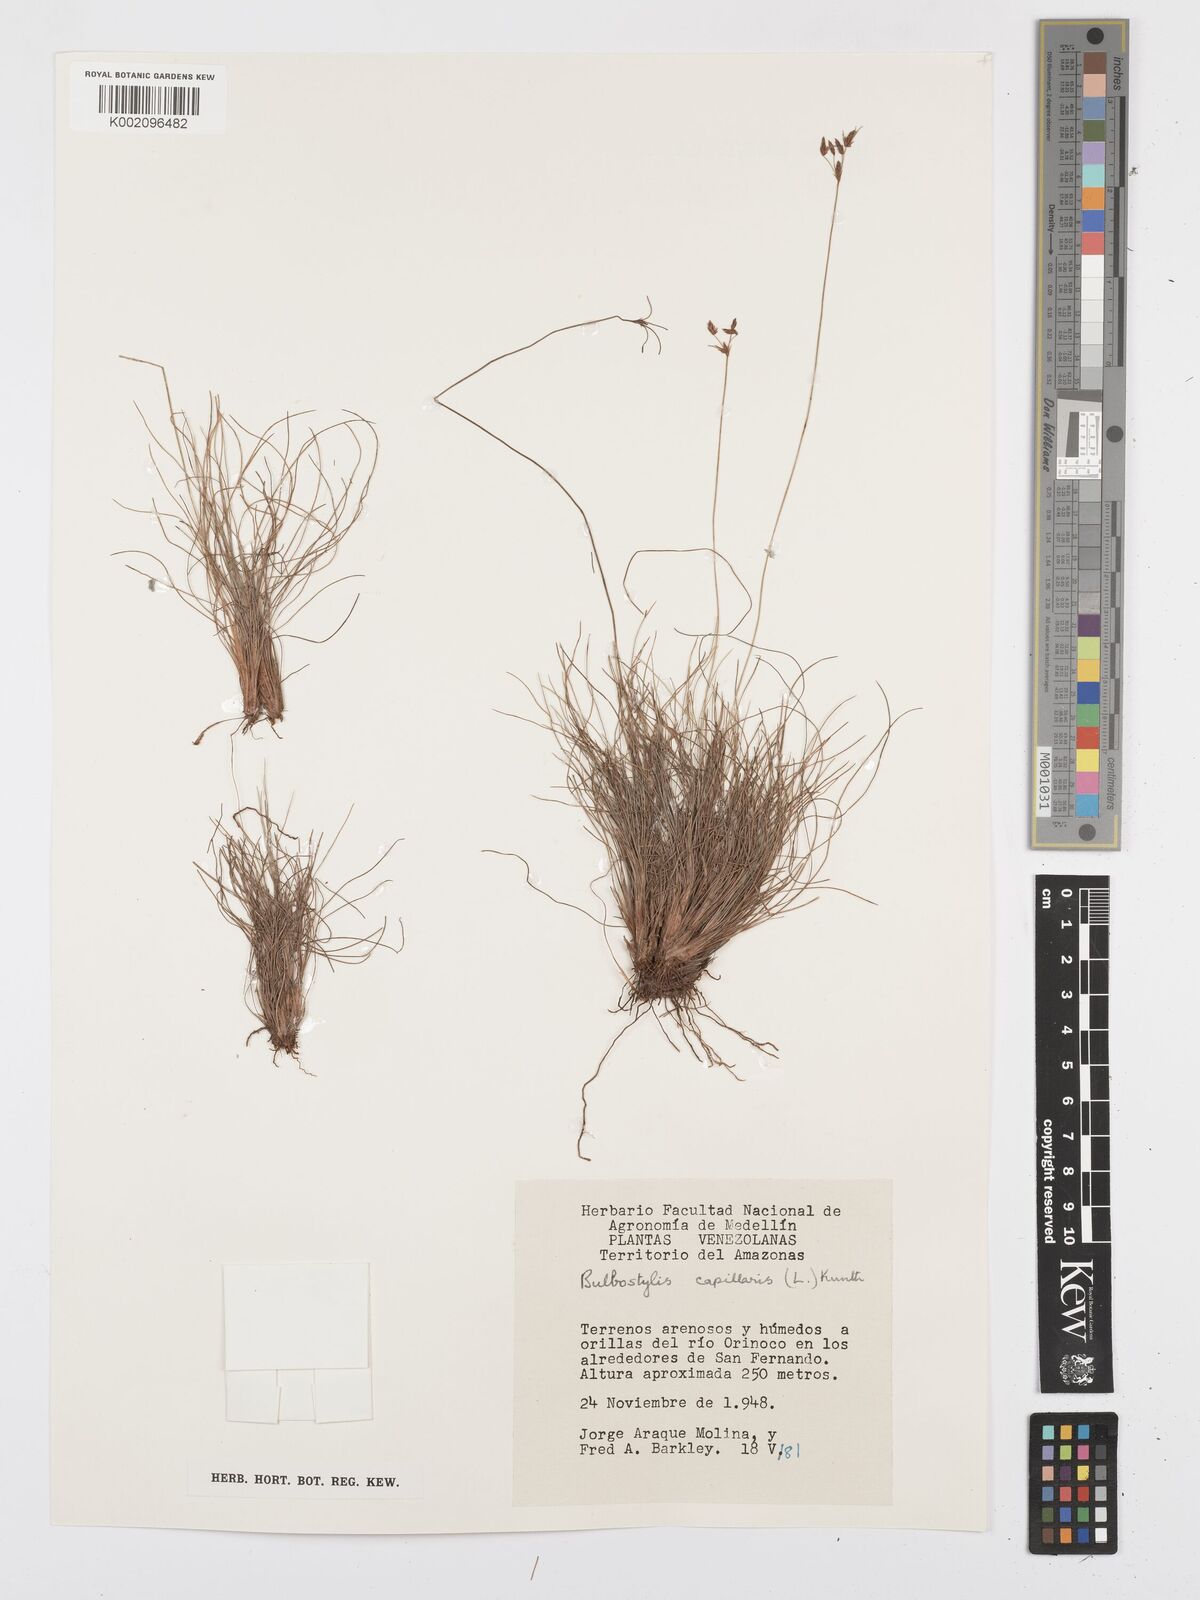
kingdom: Plantae
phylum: Tracheophyta
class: Liliopsida
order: Poales
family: Cyperaceae
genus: Bulbostylis
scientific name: Bulbostylis circinata
